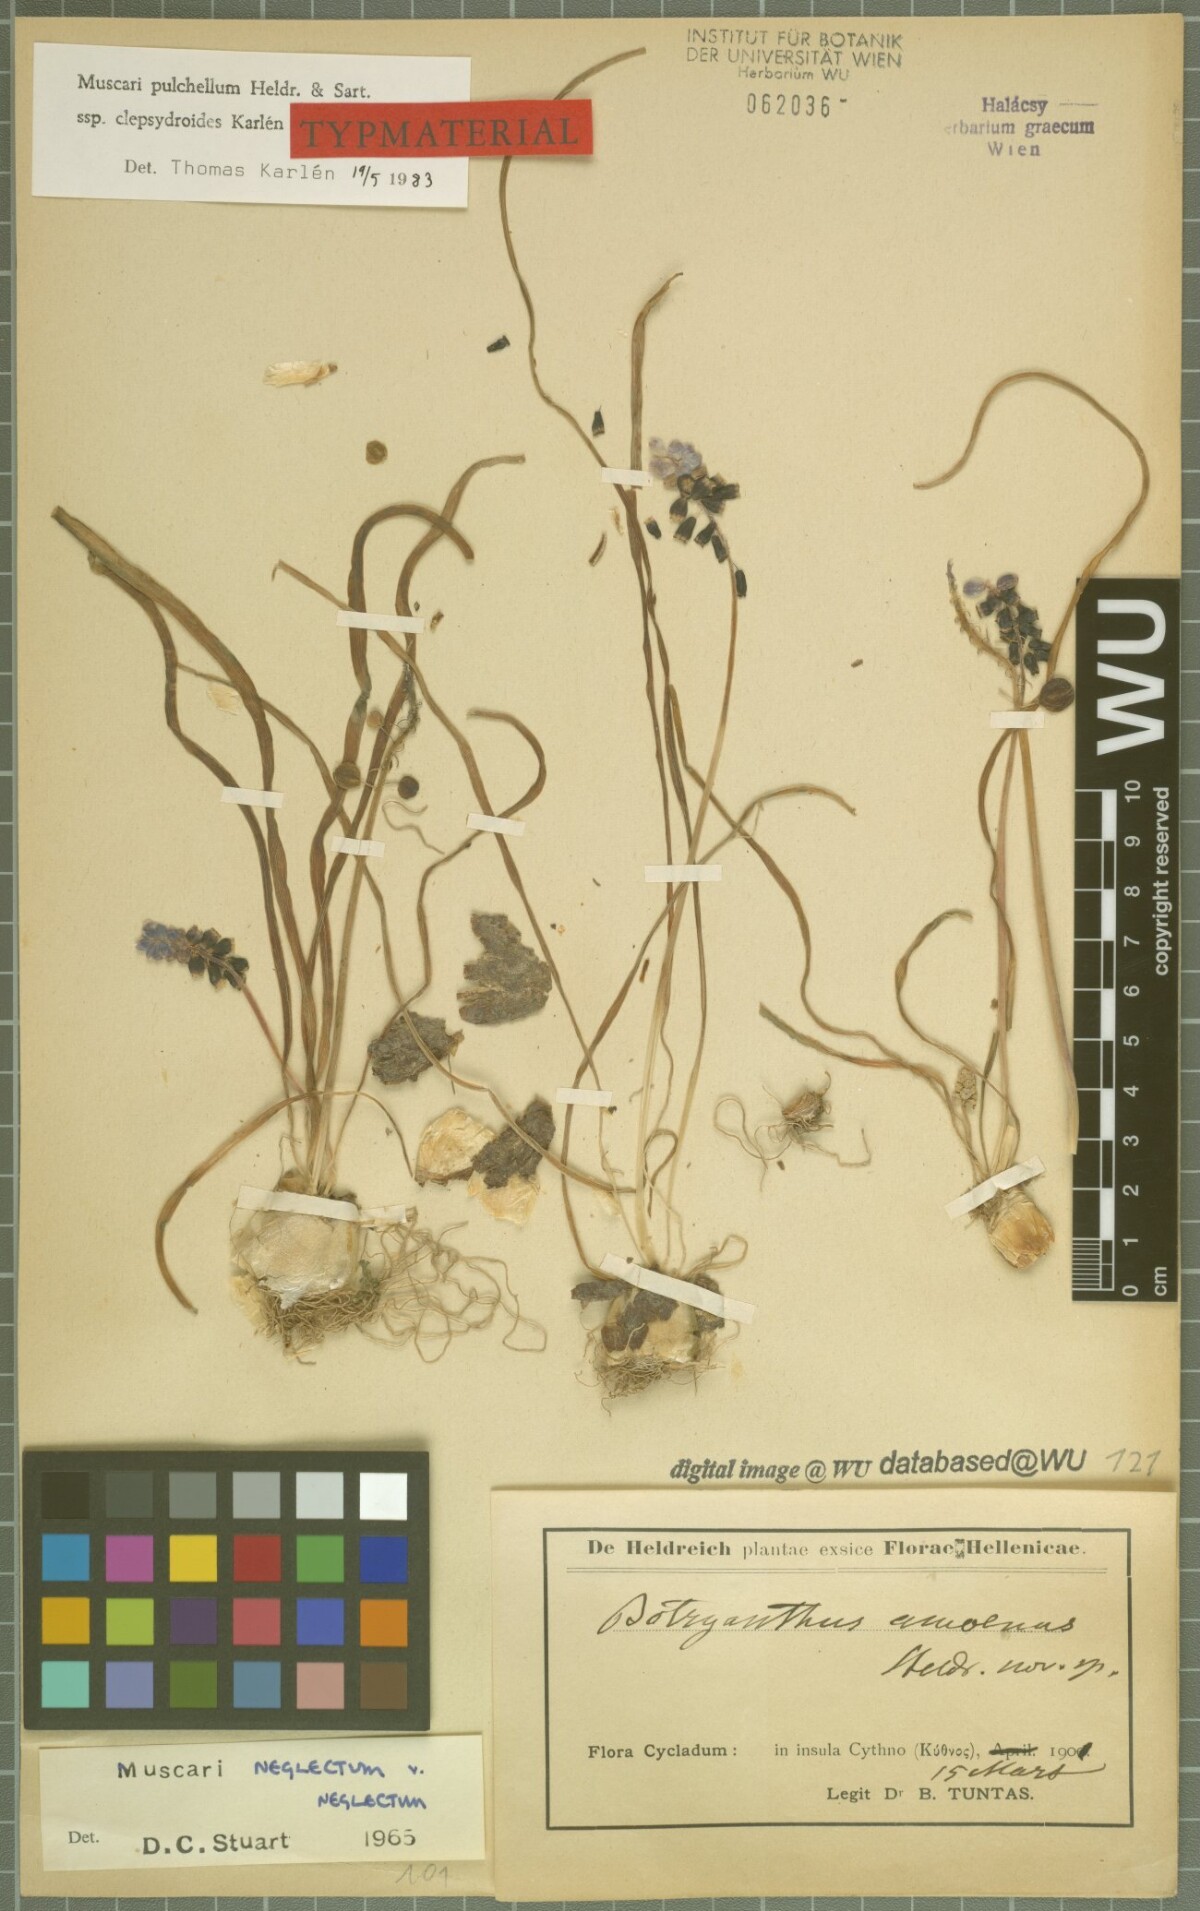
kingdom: Plantae
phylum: Tracheophyta
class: Liliopsida
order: Asparagales
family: Asparagaceae
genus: Muscari
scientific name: Muscari pulchellum
